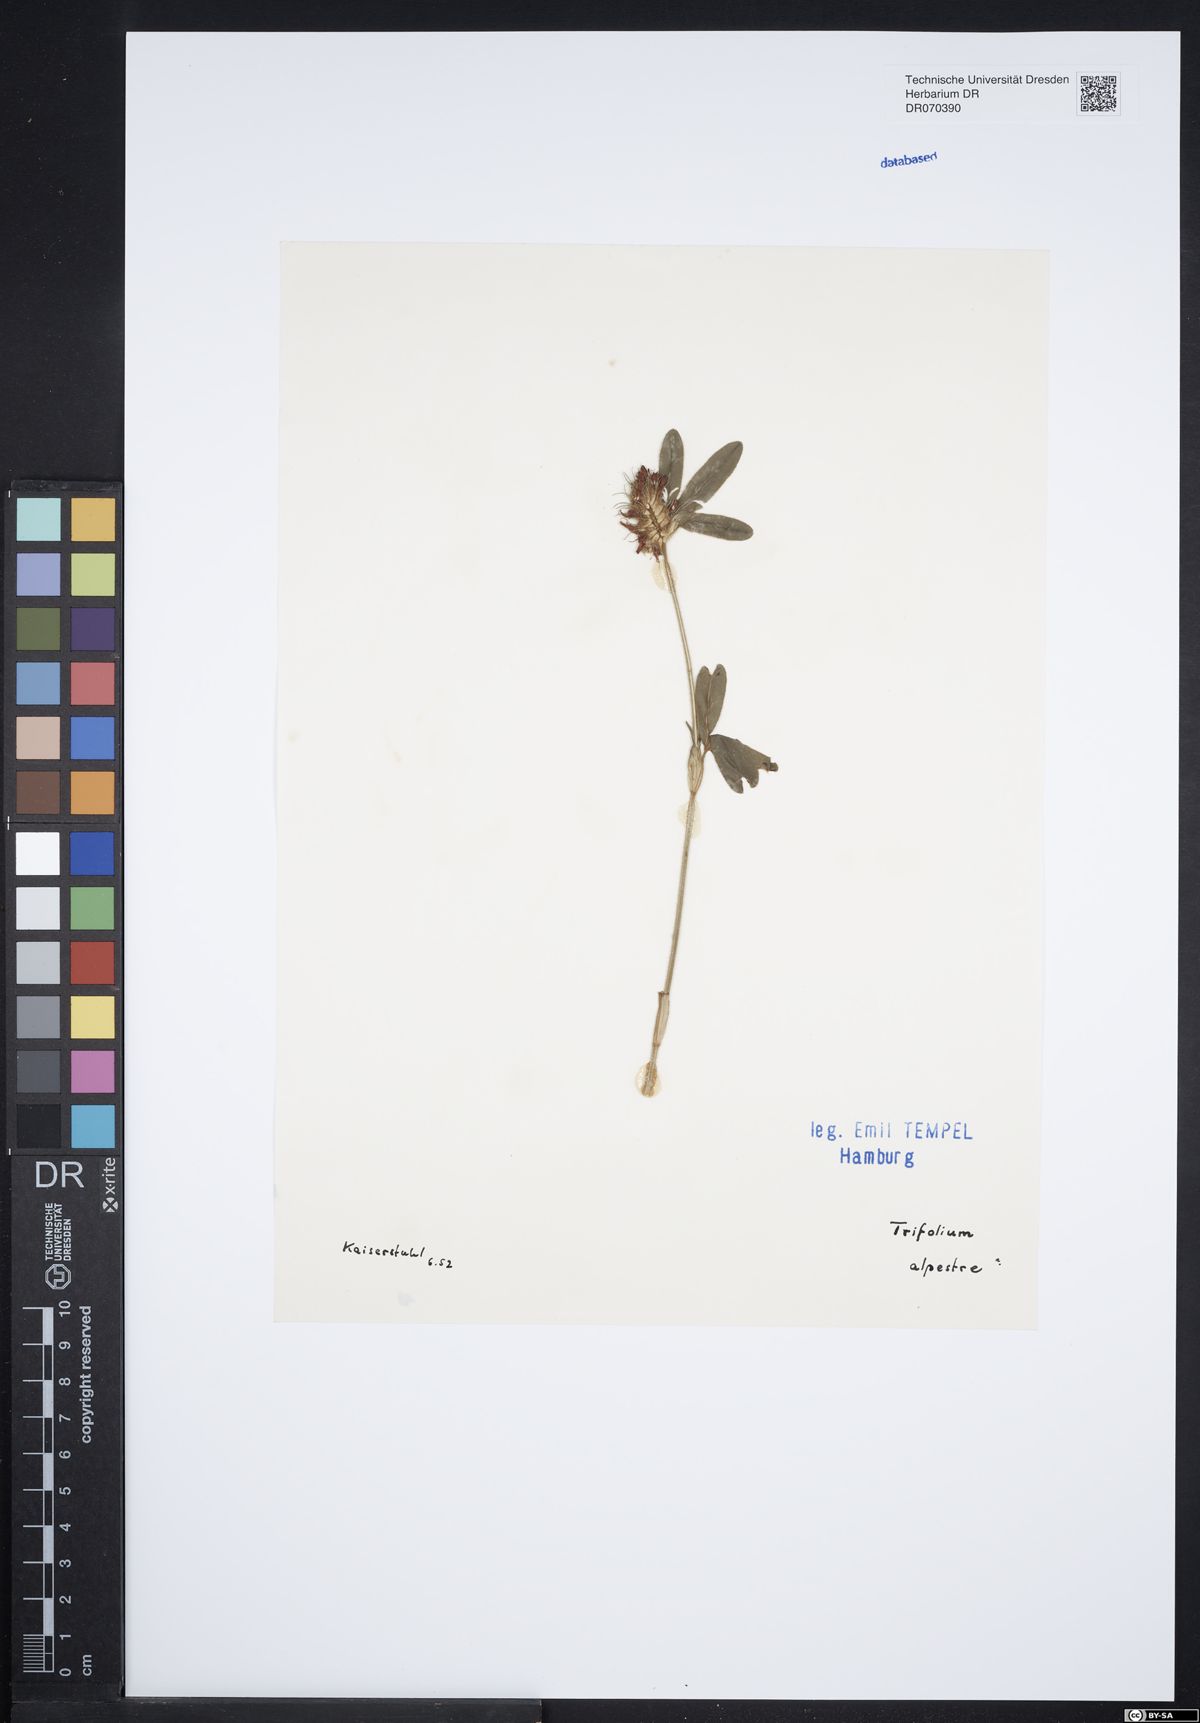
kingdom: Plantae
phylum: Tracheophyta
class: Magnoliopsida
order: Fabales
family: Fabaceae
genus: Trifolium
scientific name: Trifolium alpestre
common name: Owl-head clover
